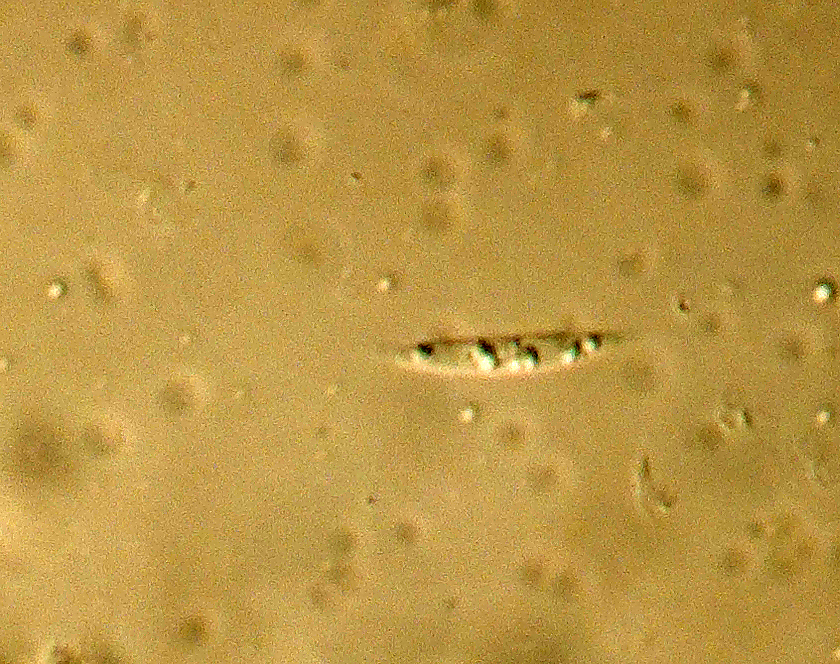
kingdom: Fungi
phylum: Ascomycota
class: Sordariomycetes
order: Diaporthales
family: Gnomoniaceae
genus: Plagiostoma
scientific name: Plagiostoma geranii
